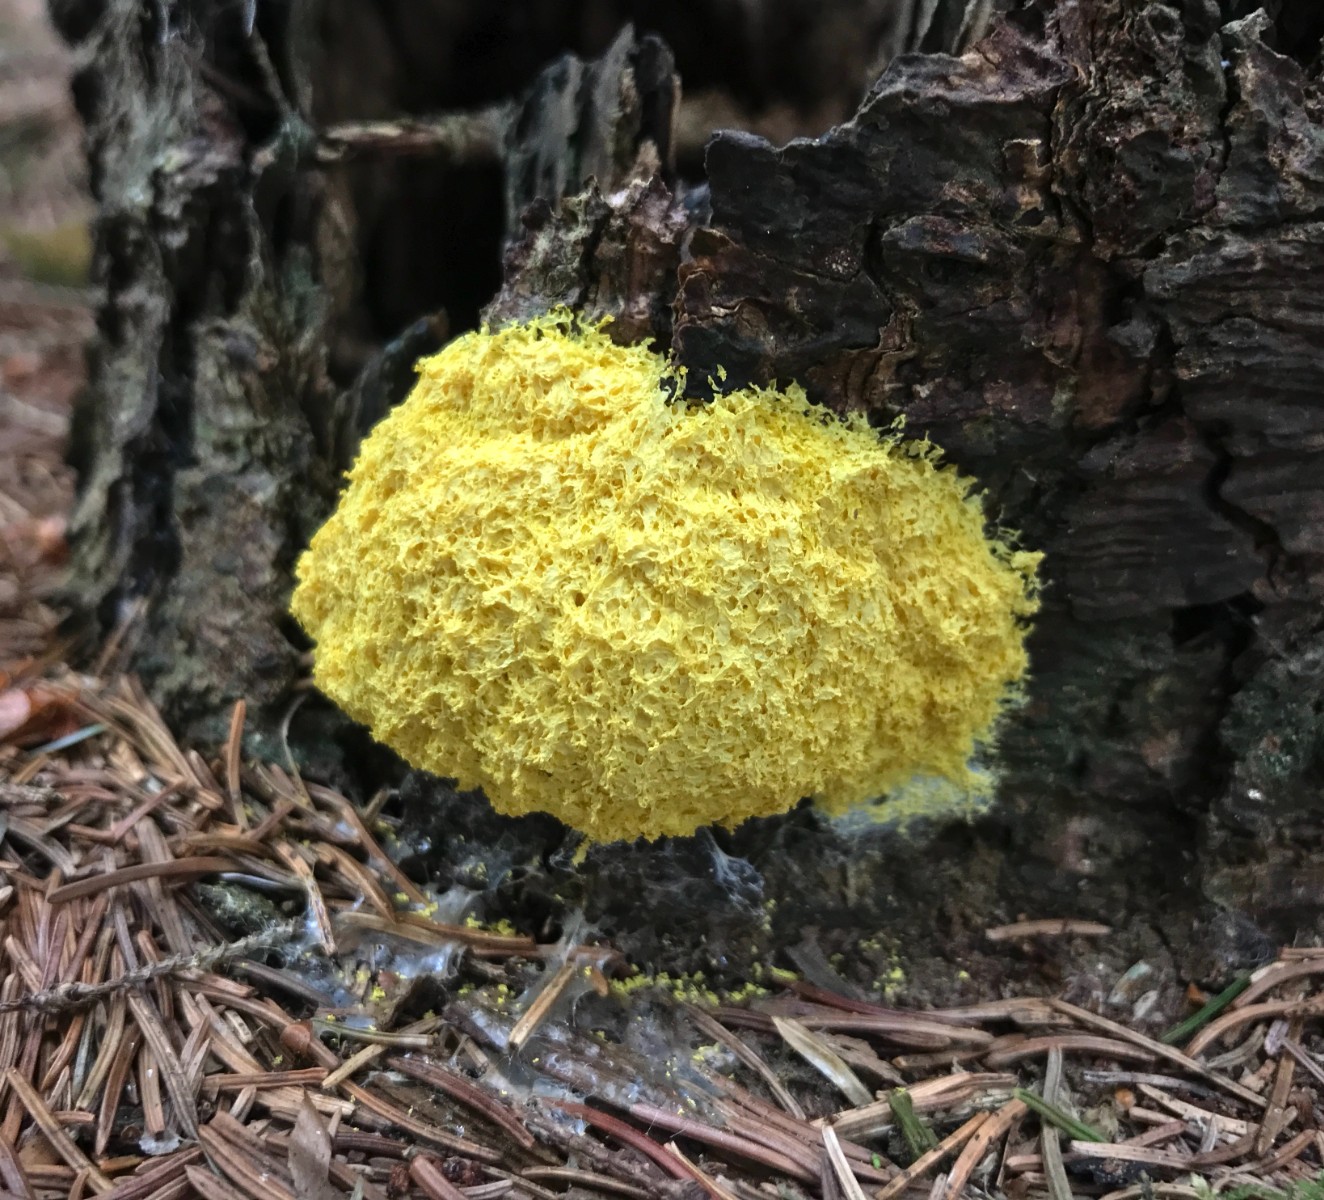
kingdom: Protozoa
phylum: Mycetozoa
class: Myxomycetes
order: Physarales
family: Physaraceae
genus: Fuligo
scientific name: Fuligo septica
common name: gul troldsmør
